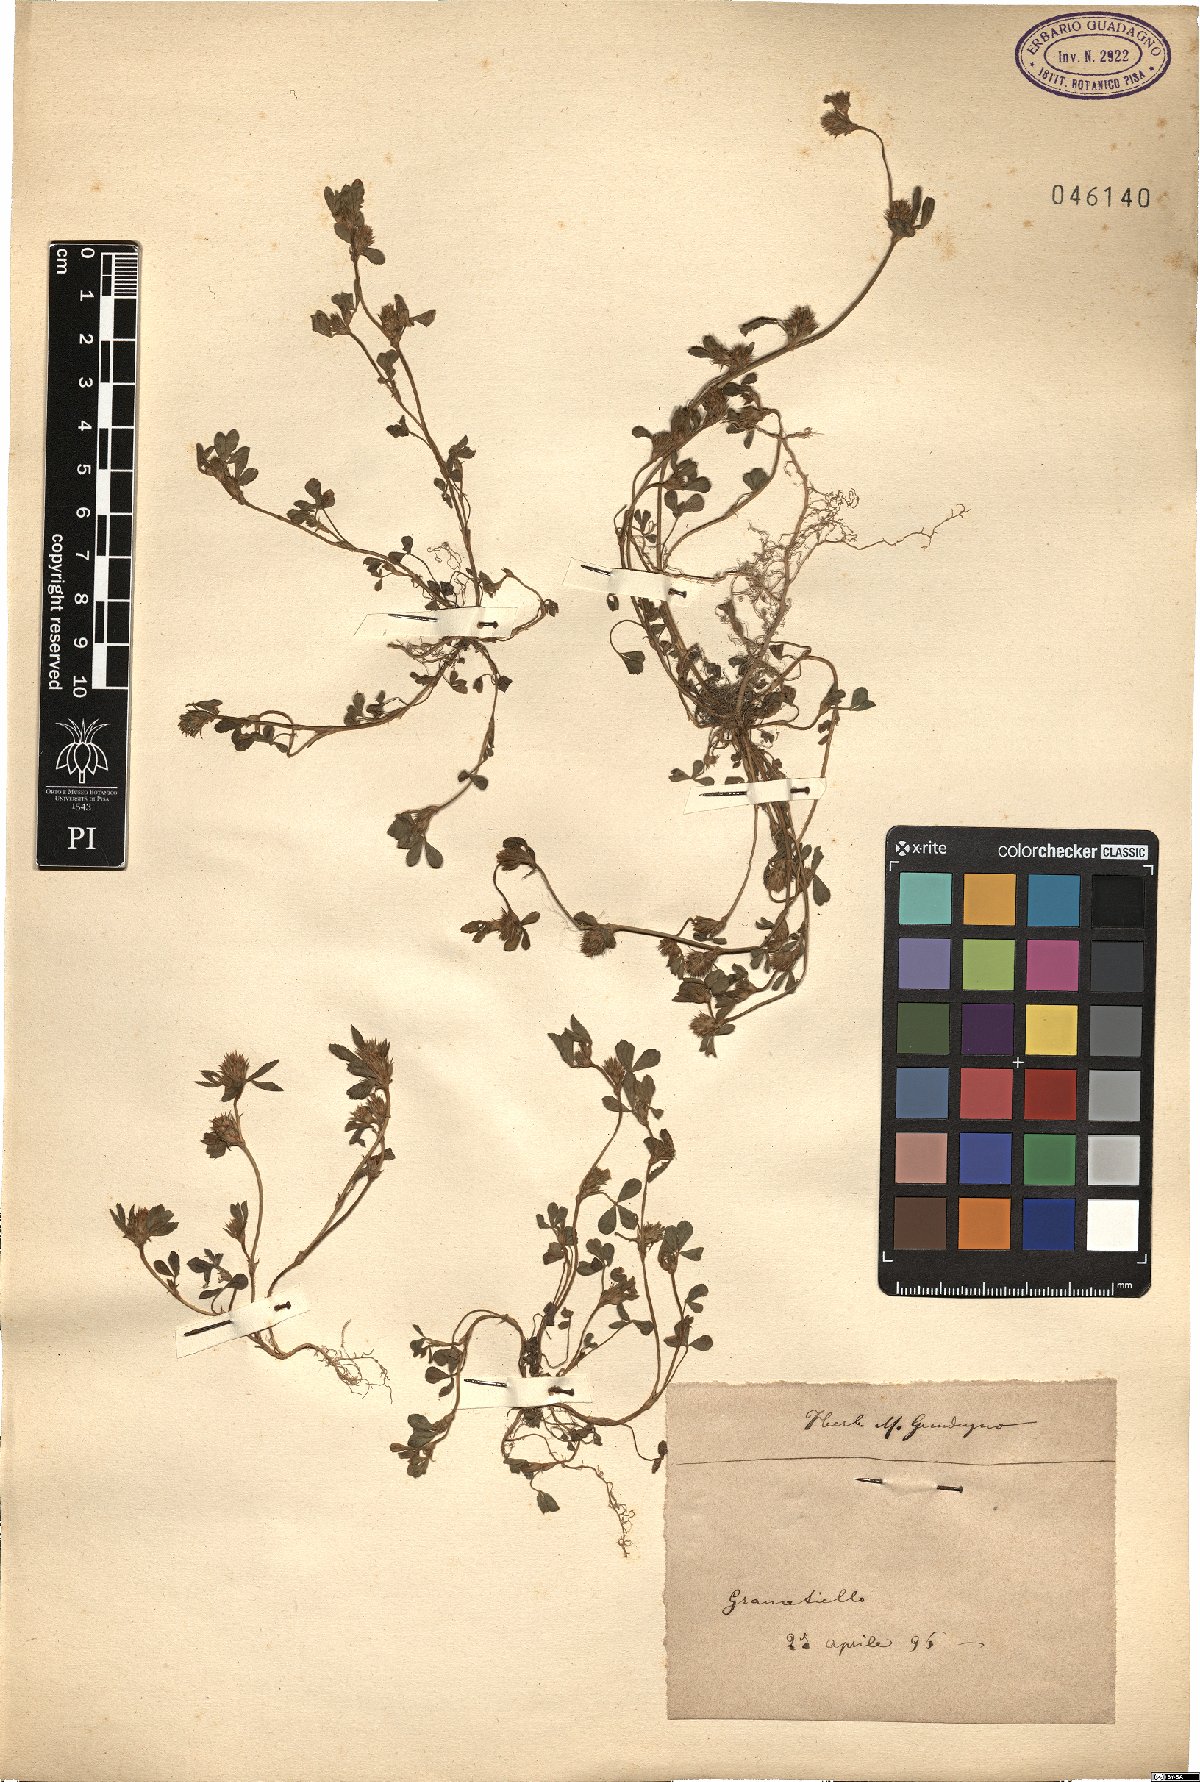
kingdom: Plantae
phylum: Tracheophyta
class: Magnoliopsida
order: Fabales
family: Fabaceae
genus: Trifolium
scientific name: Trifolium
